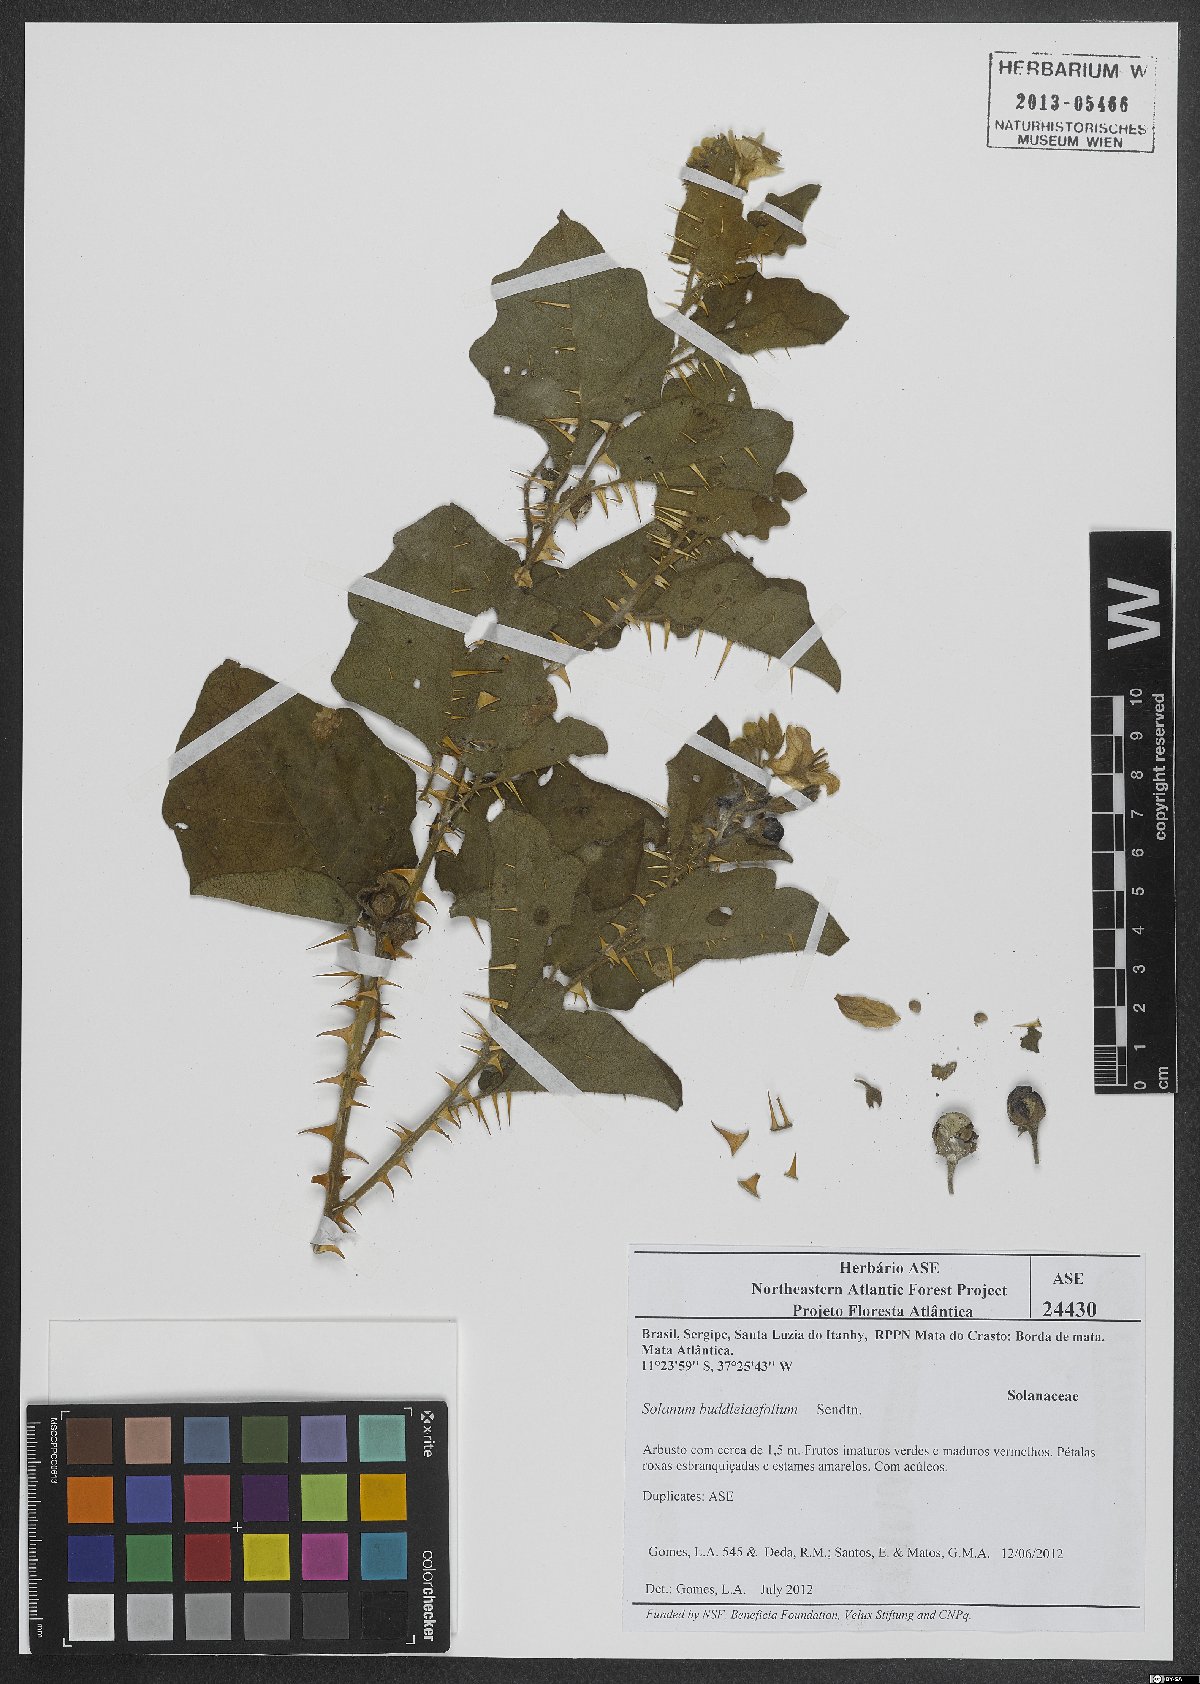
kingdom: Plantae
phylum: Tracheophyta
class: Magnoliopsida
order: Solanales
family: Solanaceae
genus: Solanum
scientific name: Solanum buddlejifolium
